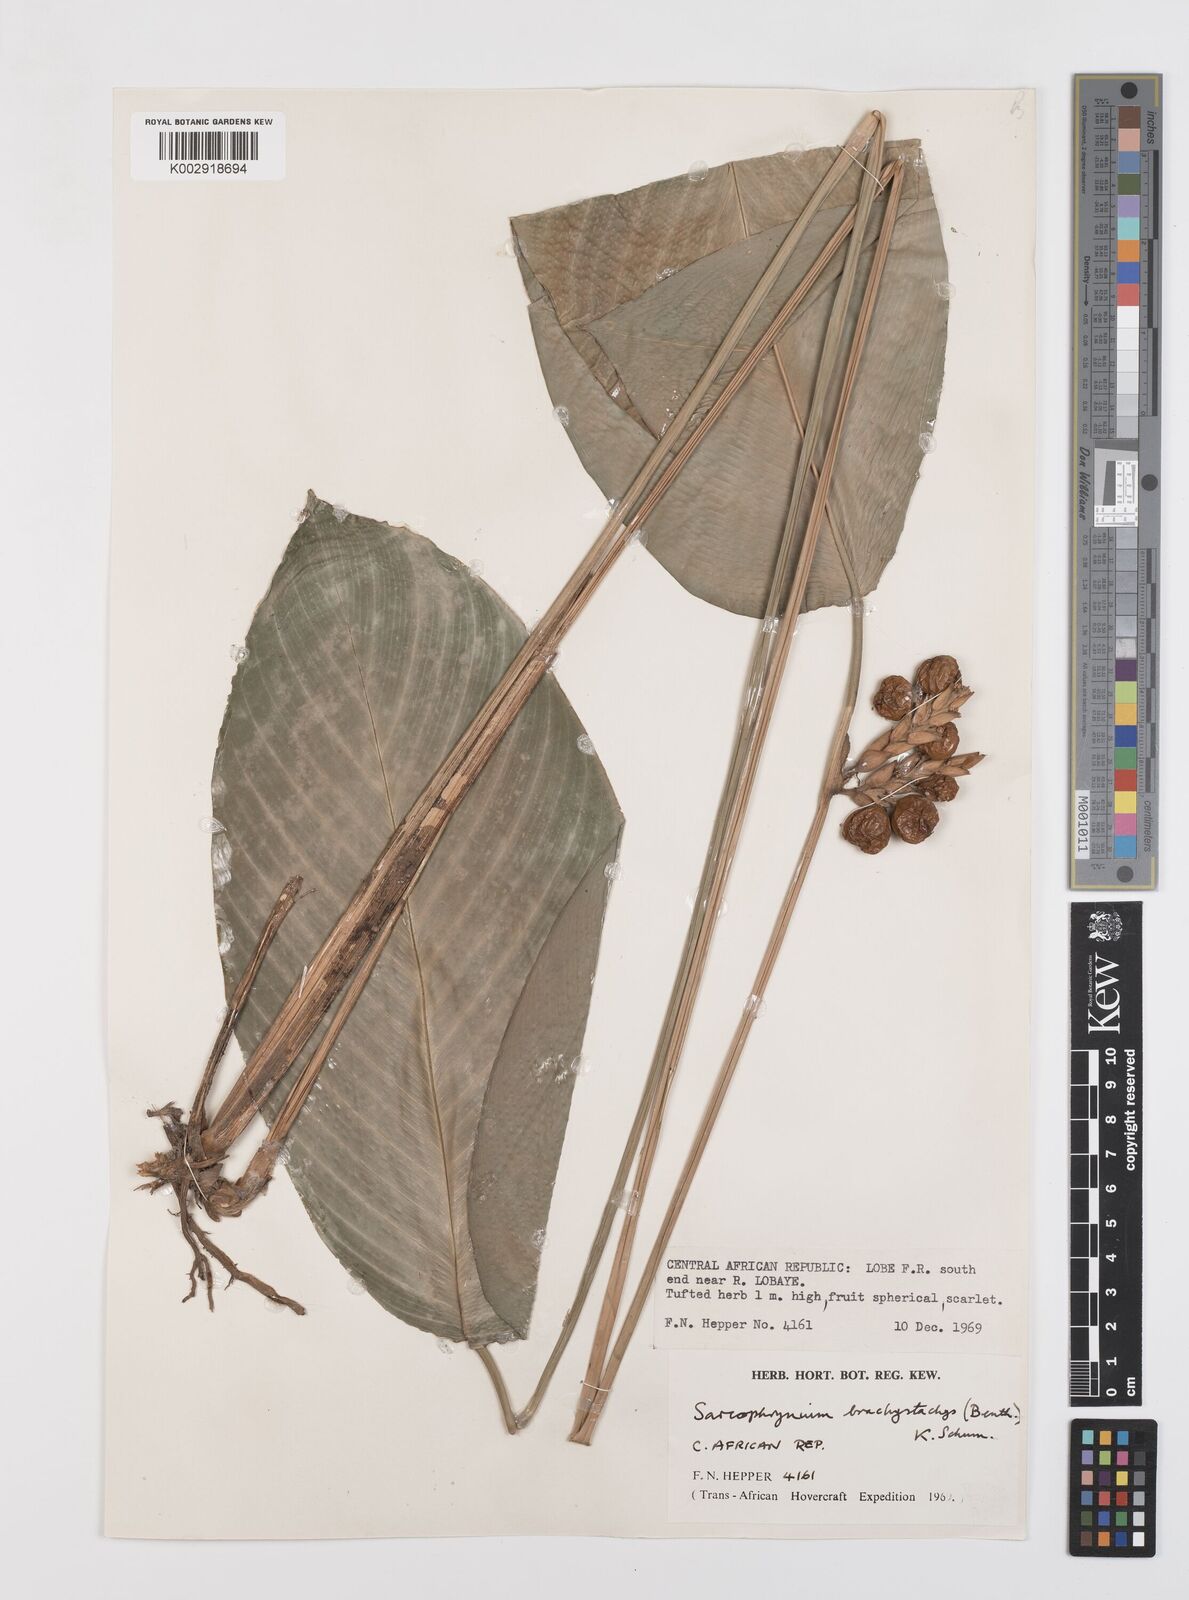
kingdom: Plantae
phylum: Tracheophyta
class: Liliopsida
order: Zingiberales
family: Marantaceae
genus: Sarcophrynium
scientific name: Sarcophrynium brachystachyum
